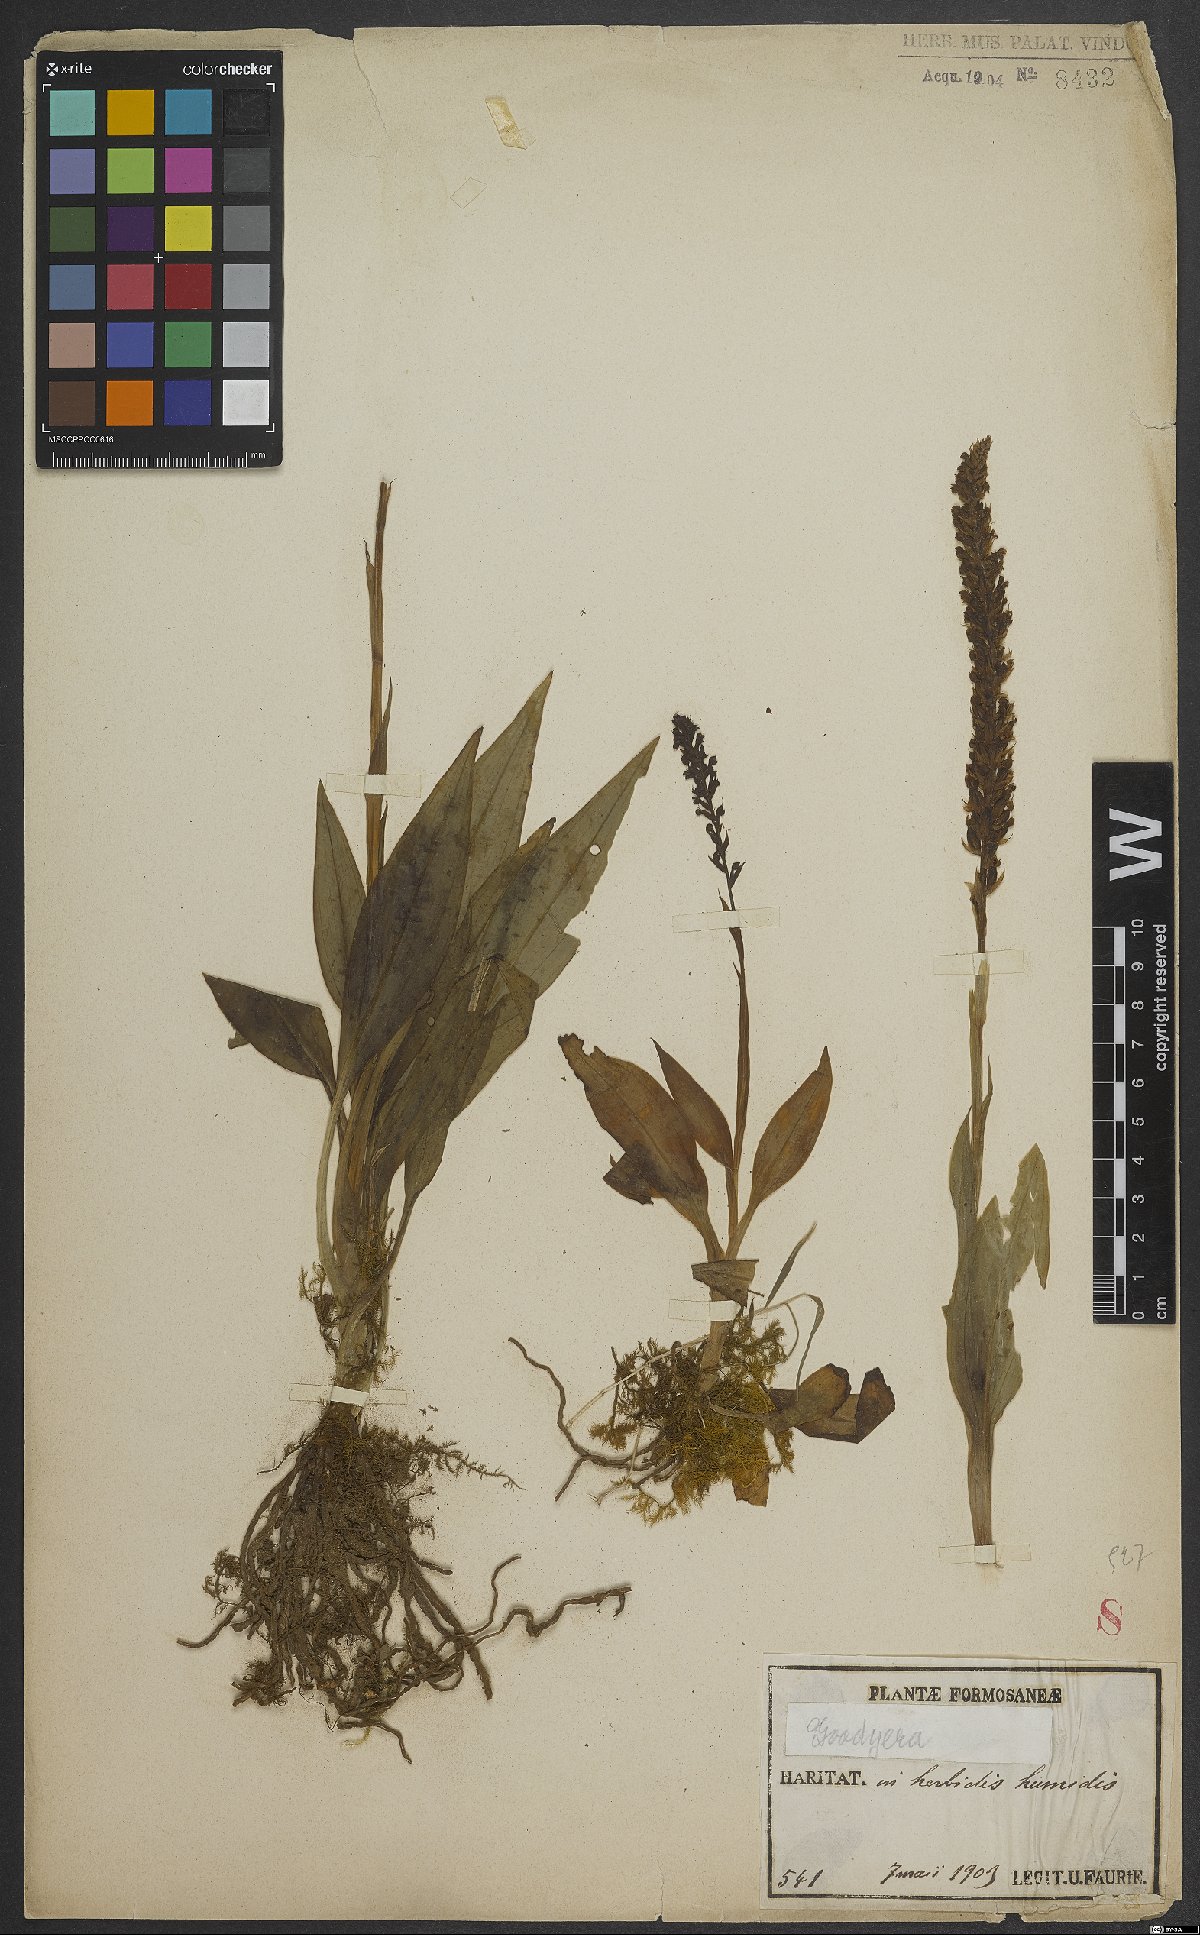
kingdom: Plantae
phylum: Tracheophyta
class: Liliopsida
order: Asparagales
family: Orchidaceae
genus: Goodyera
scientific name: Goodyera
